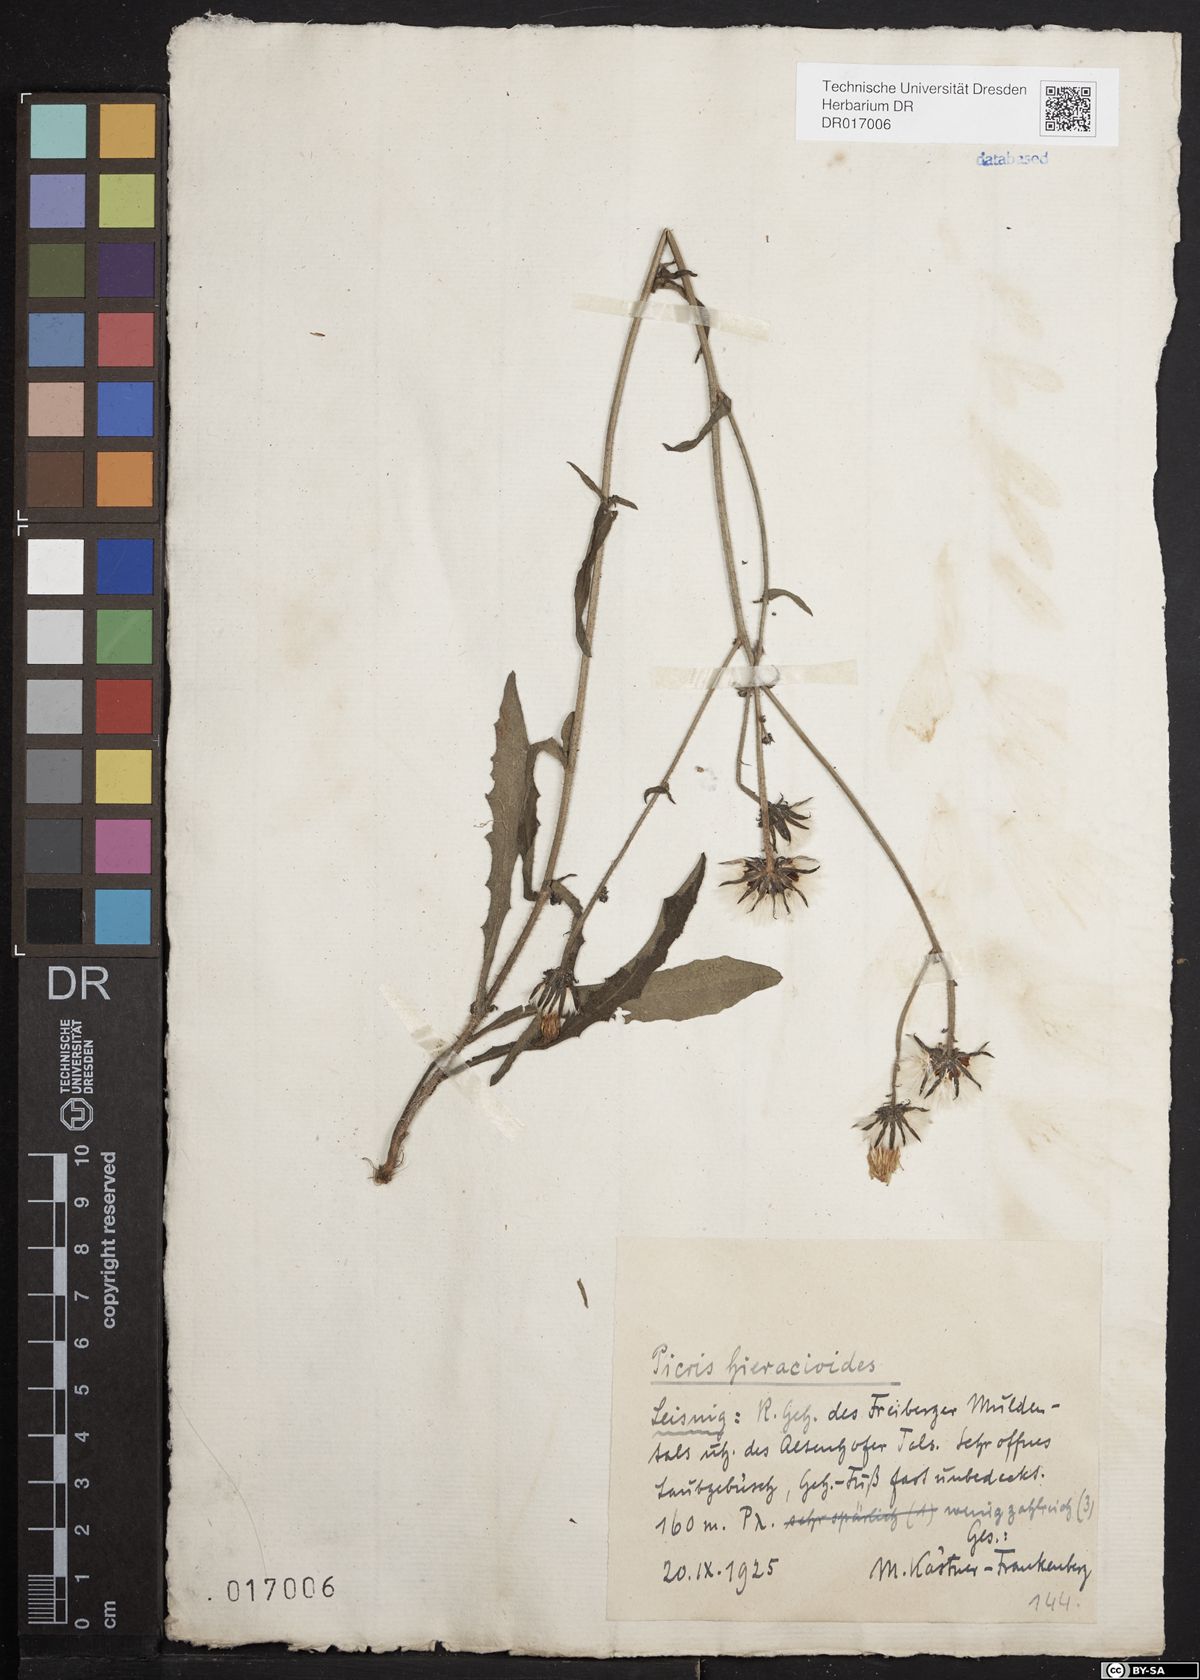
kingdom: Plantae
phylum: Tracheophyta
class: Magnoliopsida
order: Asterales
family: Asteraceae
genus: Picris
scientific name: Picris hieracioides
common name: Hawkweed oxtongue
